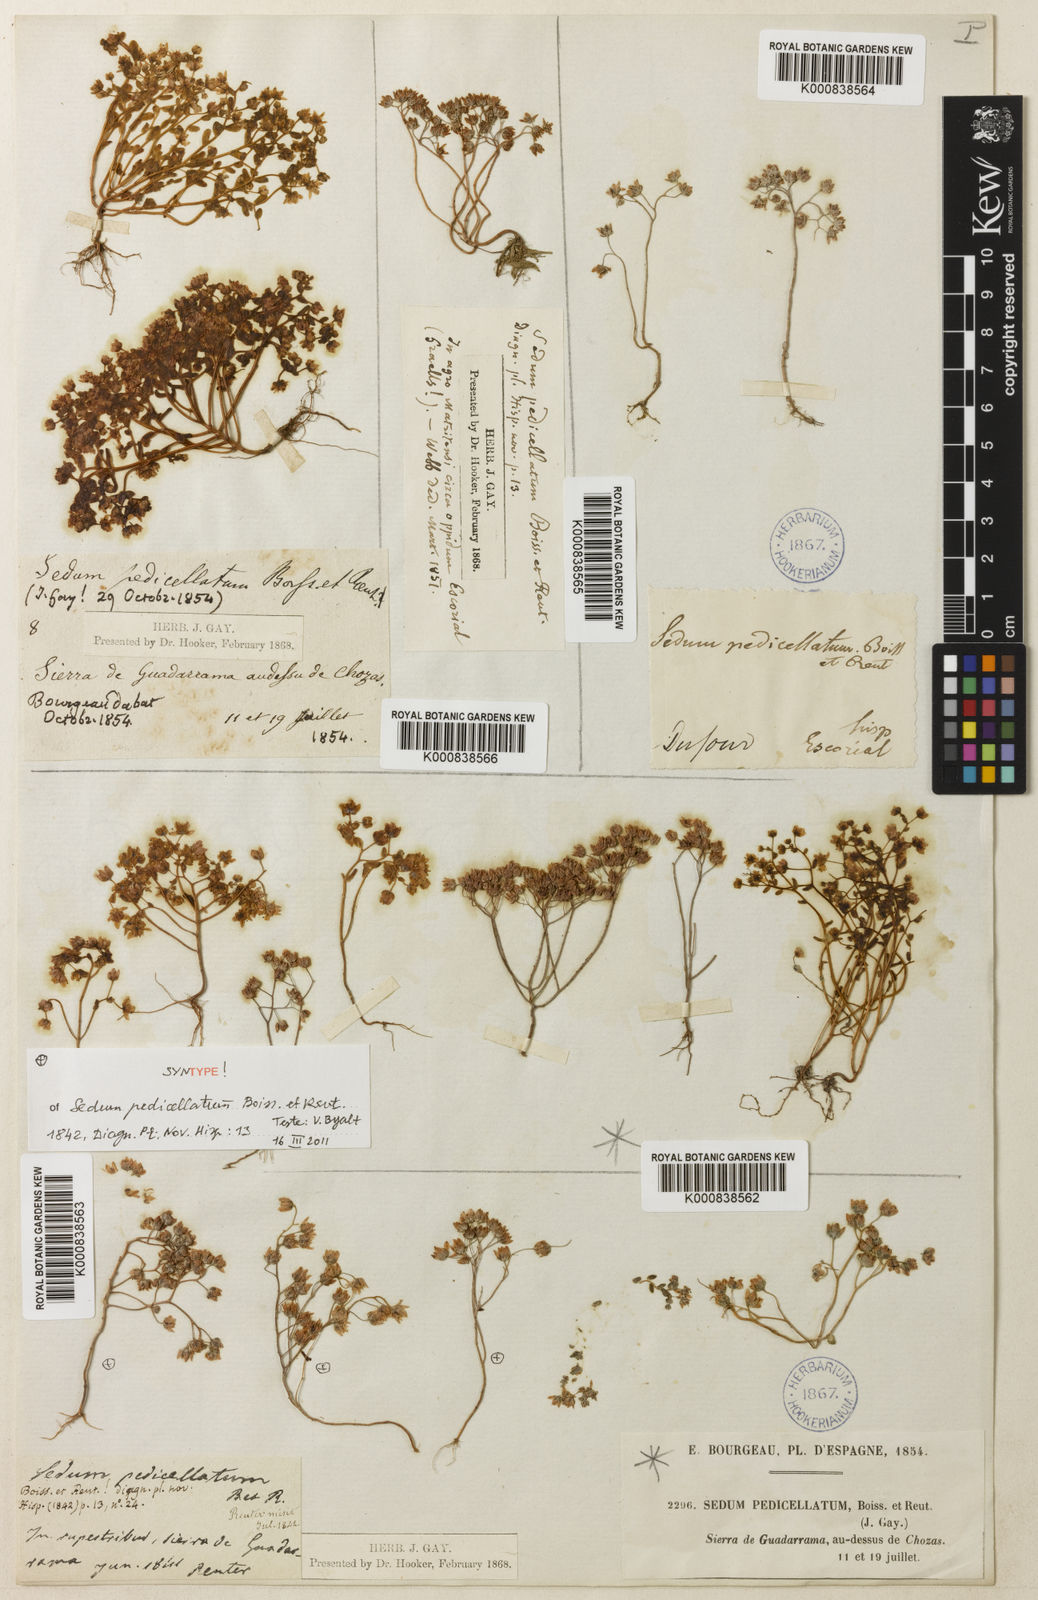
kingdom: Plantae
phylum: Tracheophyta
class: Magnoliopsida
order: Saxifragales
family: Crassulaceae
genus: Sedum
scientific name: Sedum pedicellatum
